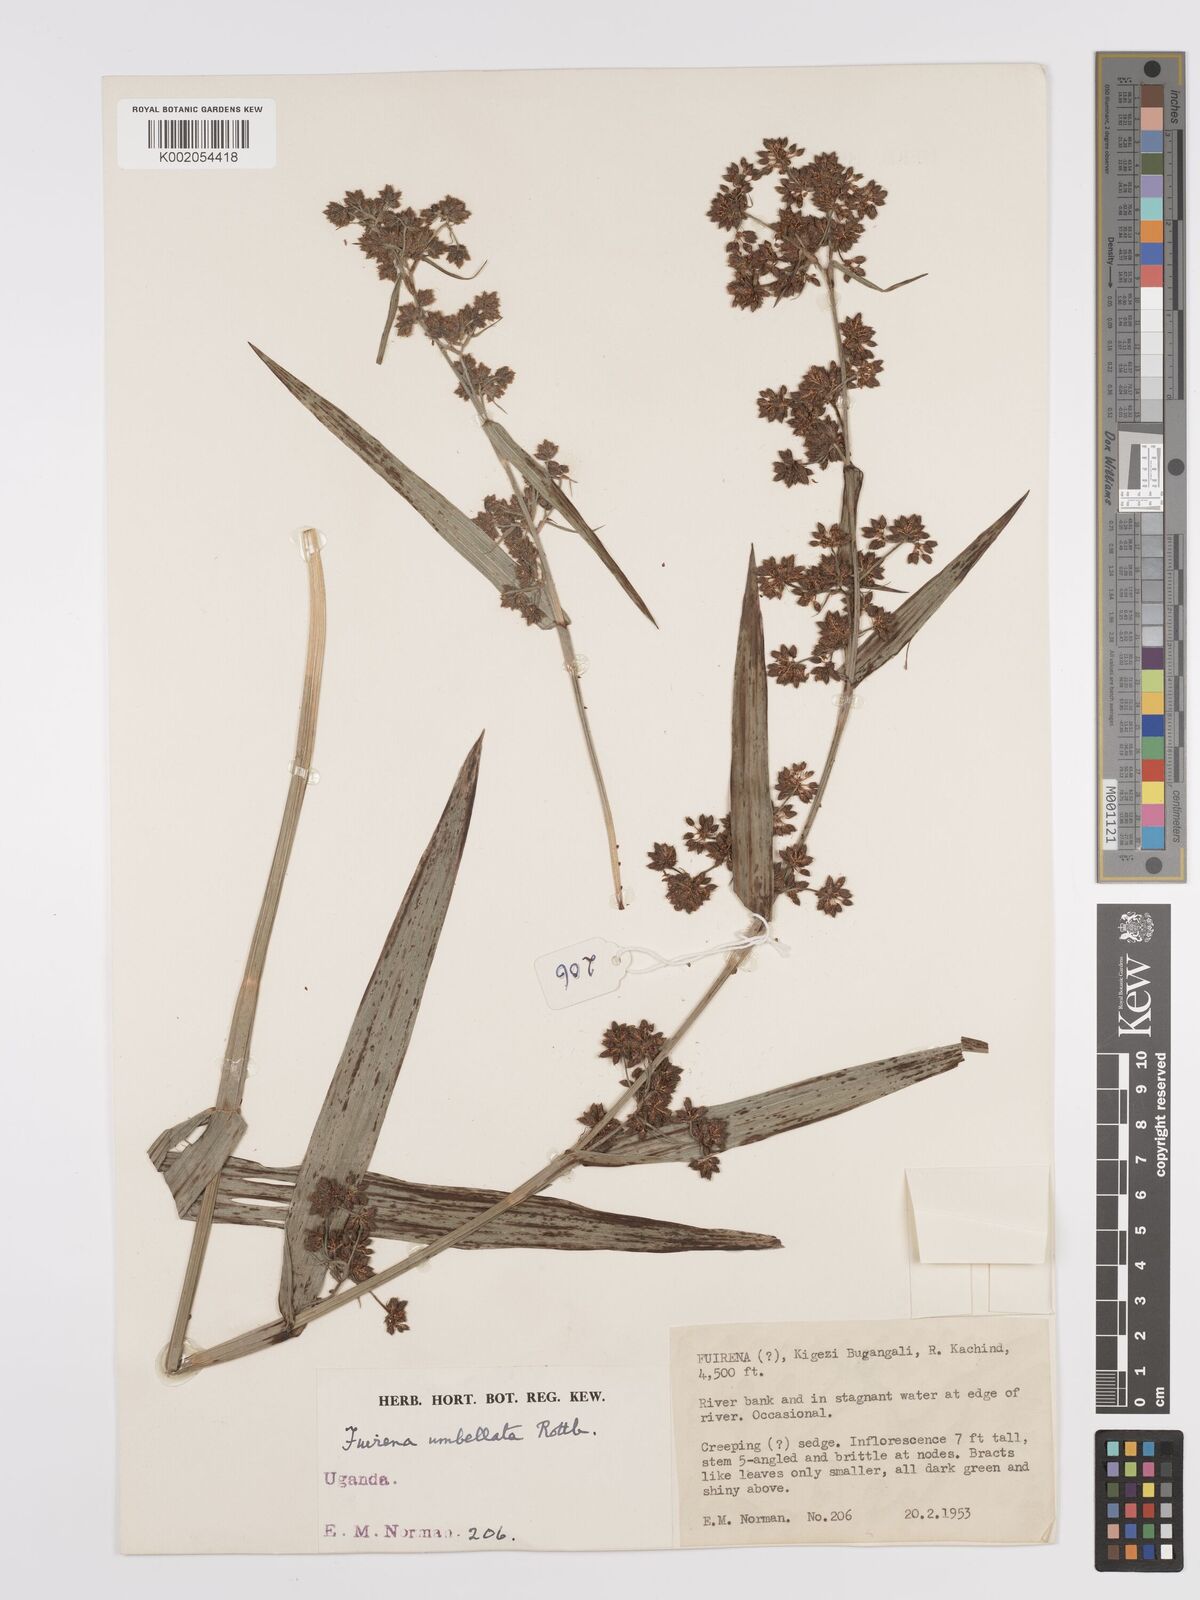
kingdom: Plantae
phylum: Tracheophyta
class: Liliopsida
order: Poales
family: Cyperaceae
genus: Fuirena
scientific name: Fuirena umbellata
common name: Yefen
